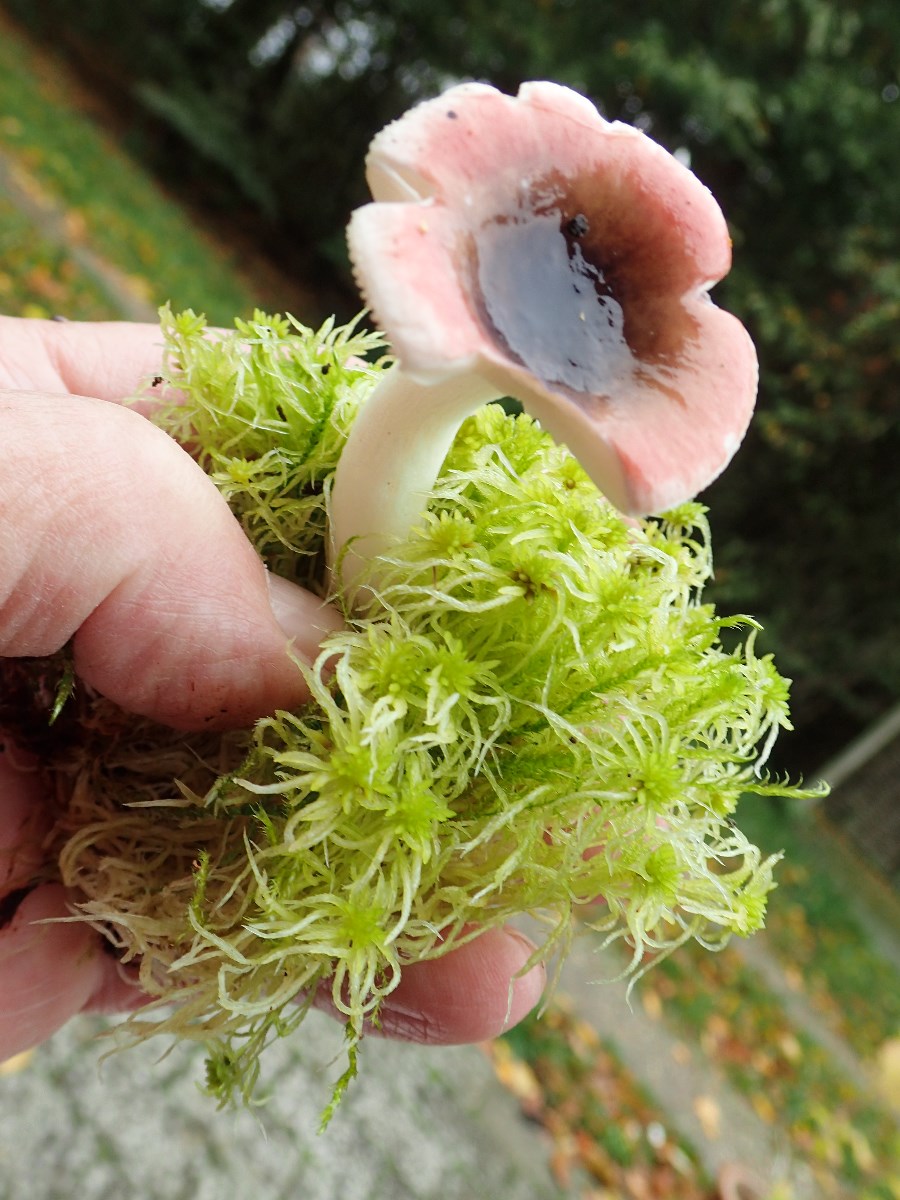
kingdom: Fungi
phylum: Basidiomycota
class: Agaricomycetes
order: Russulales
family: Russulaceae
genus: Russula
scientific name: Russula
